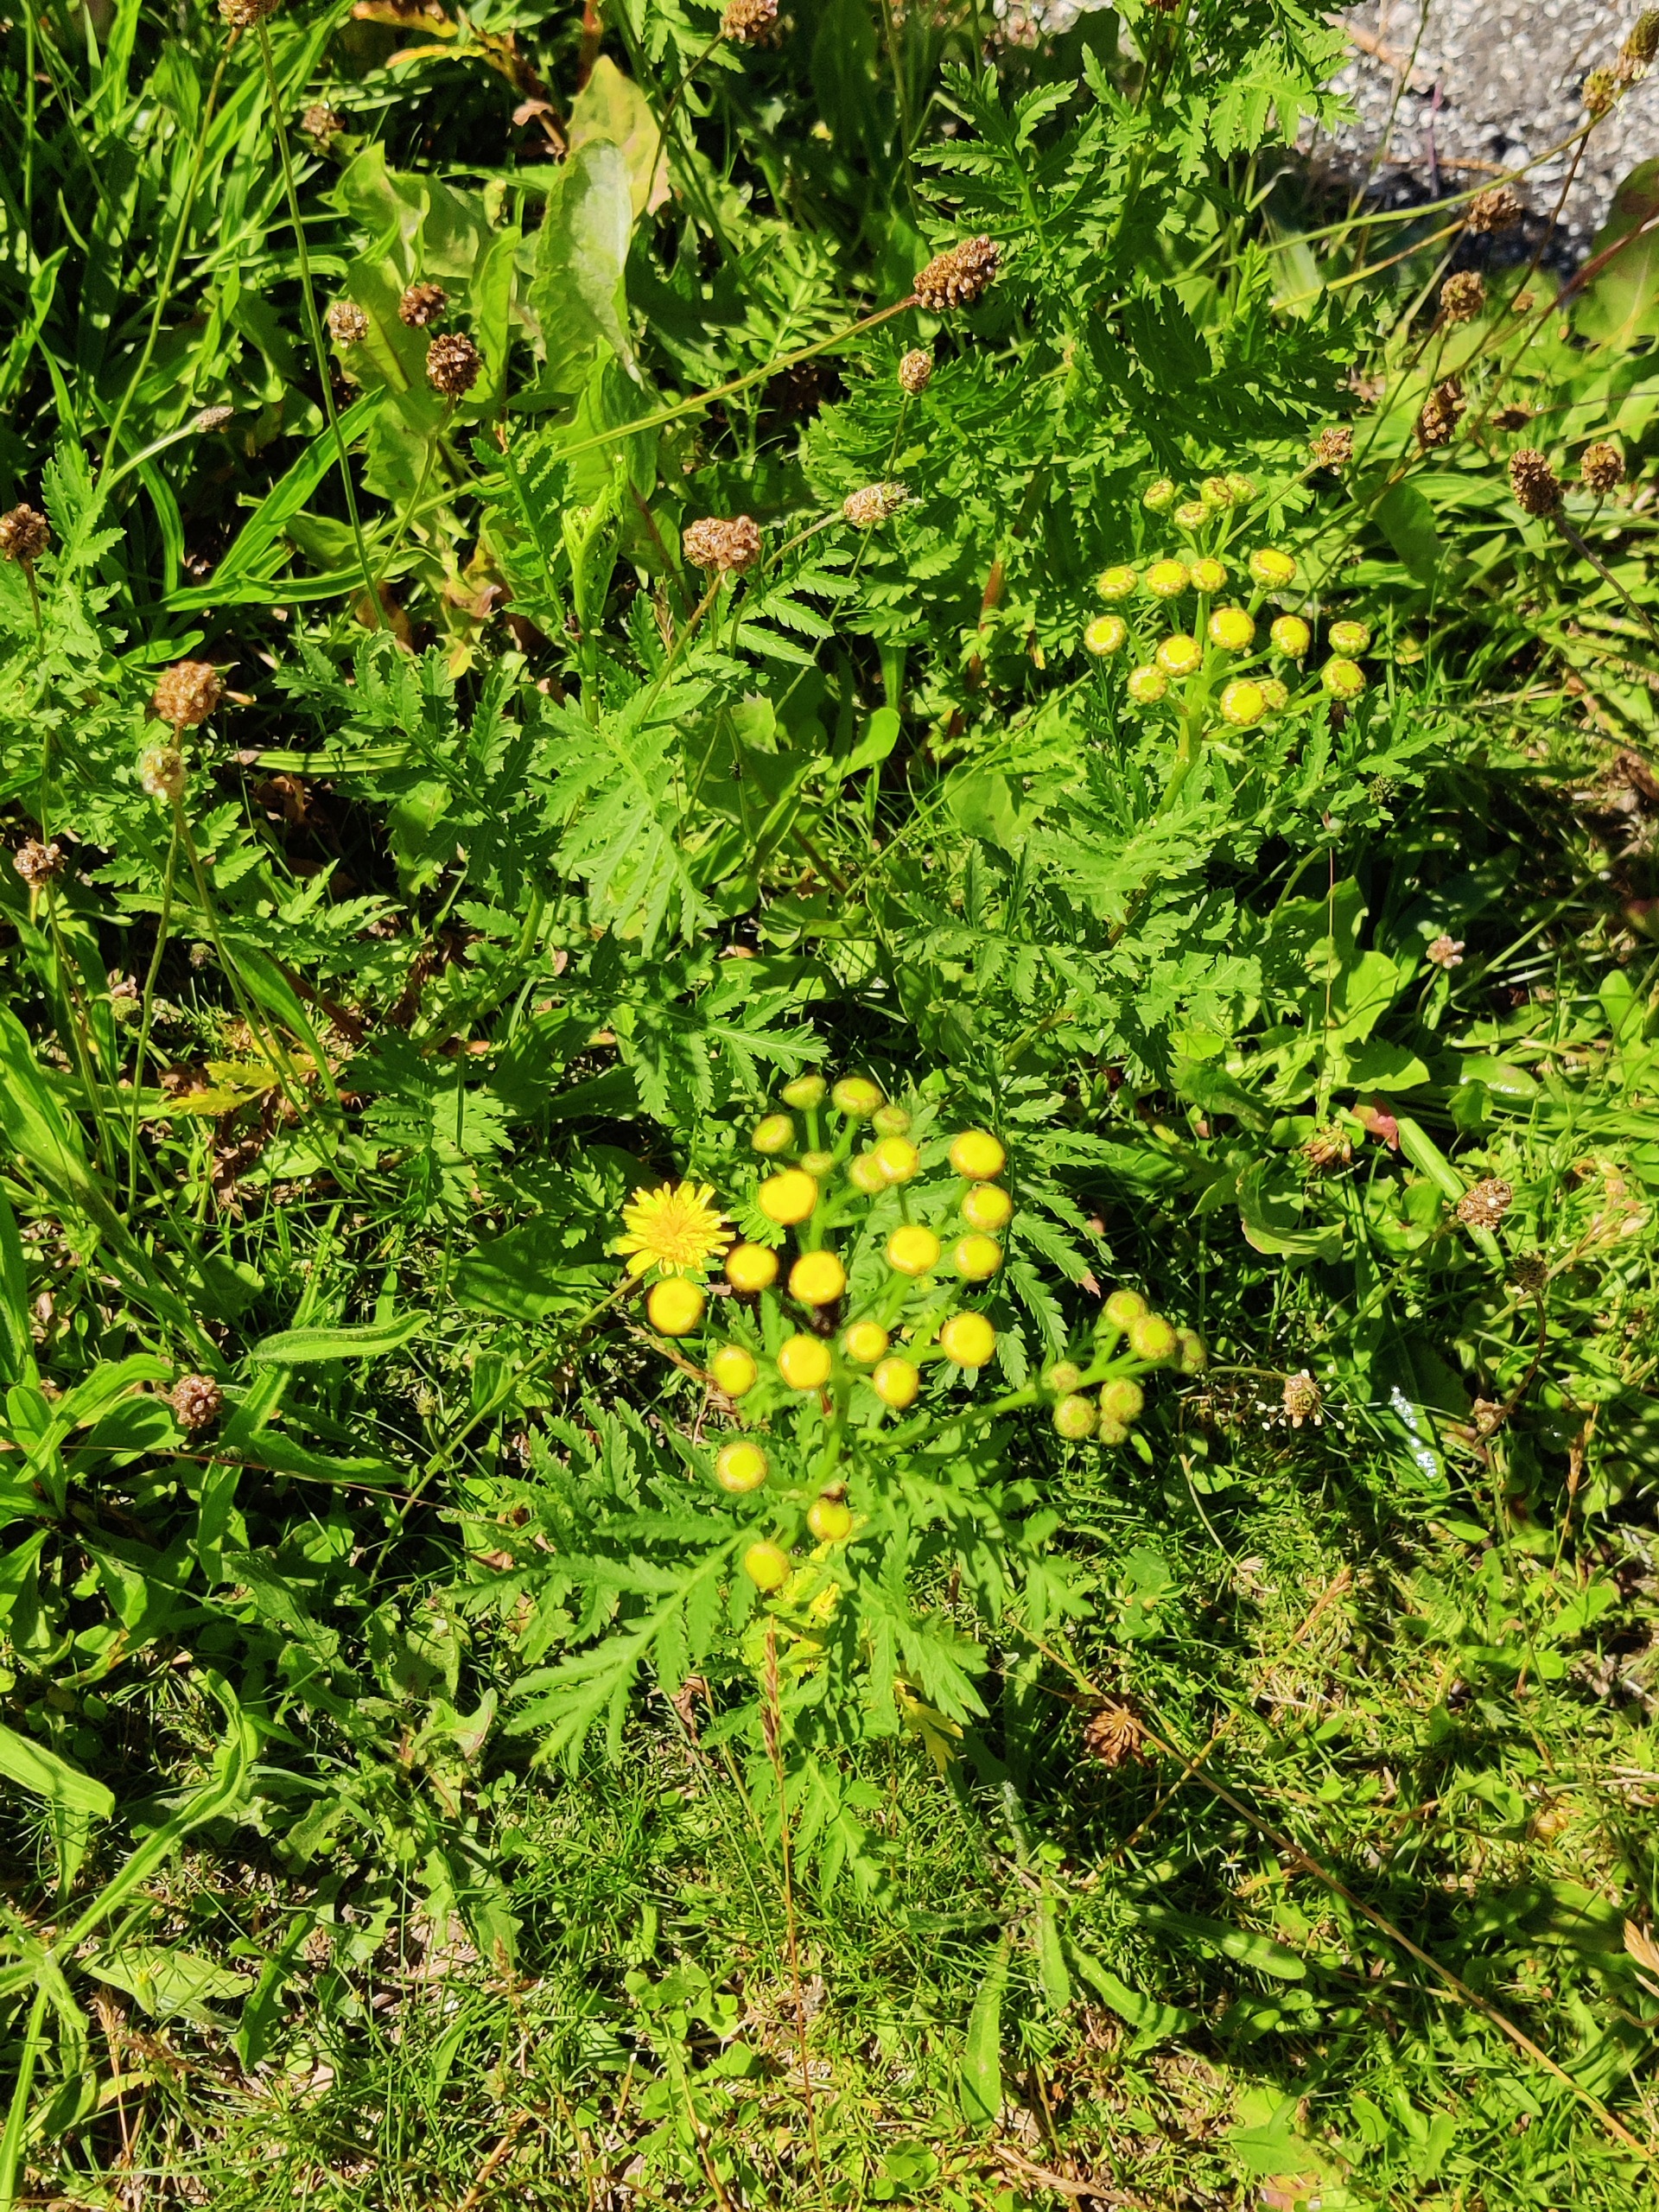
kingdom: Plantae
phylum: Tracheophyta
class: Magnoliopsida
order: Asterales
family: Asteraceae
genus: Tanacetum
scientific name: Tanacetum vulgare
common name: Rejnfan
